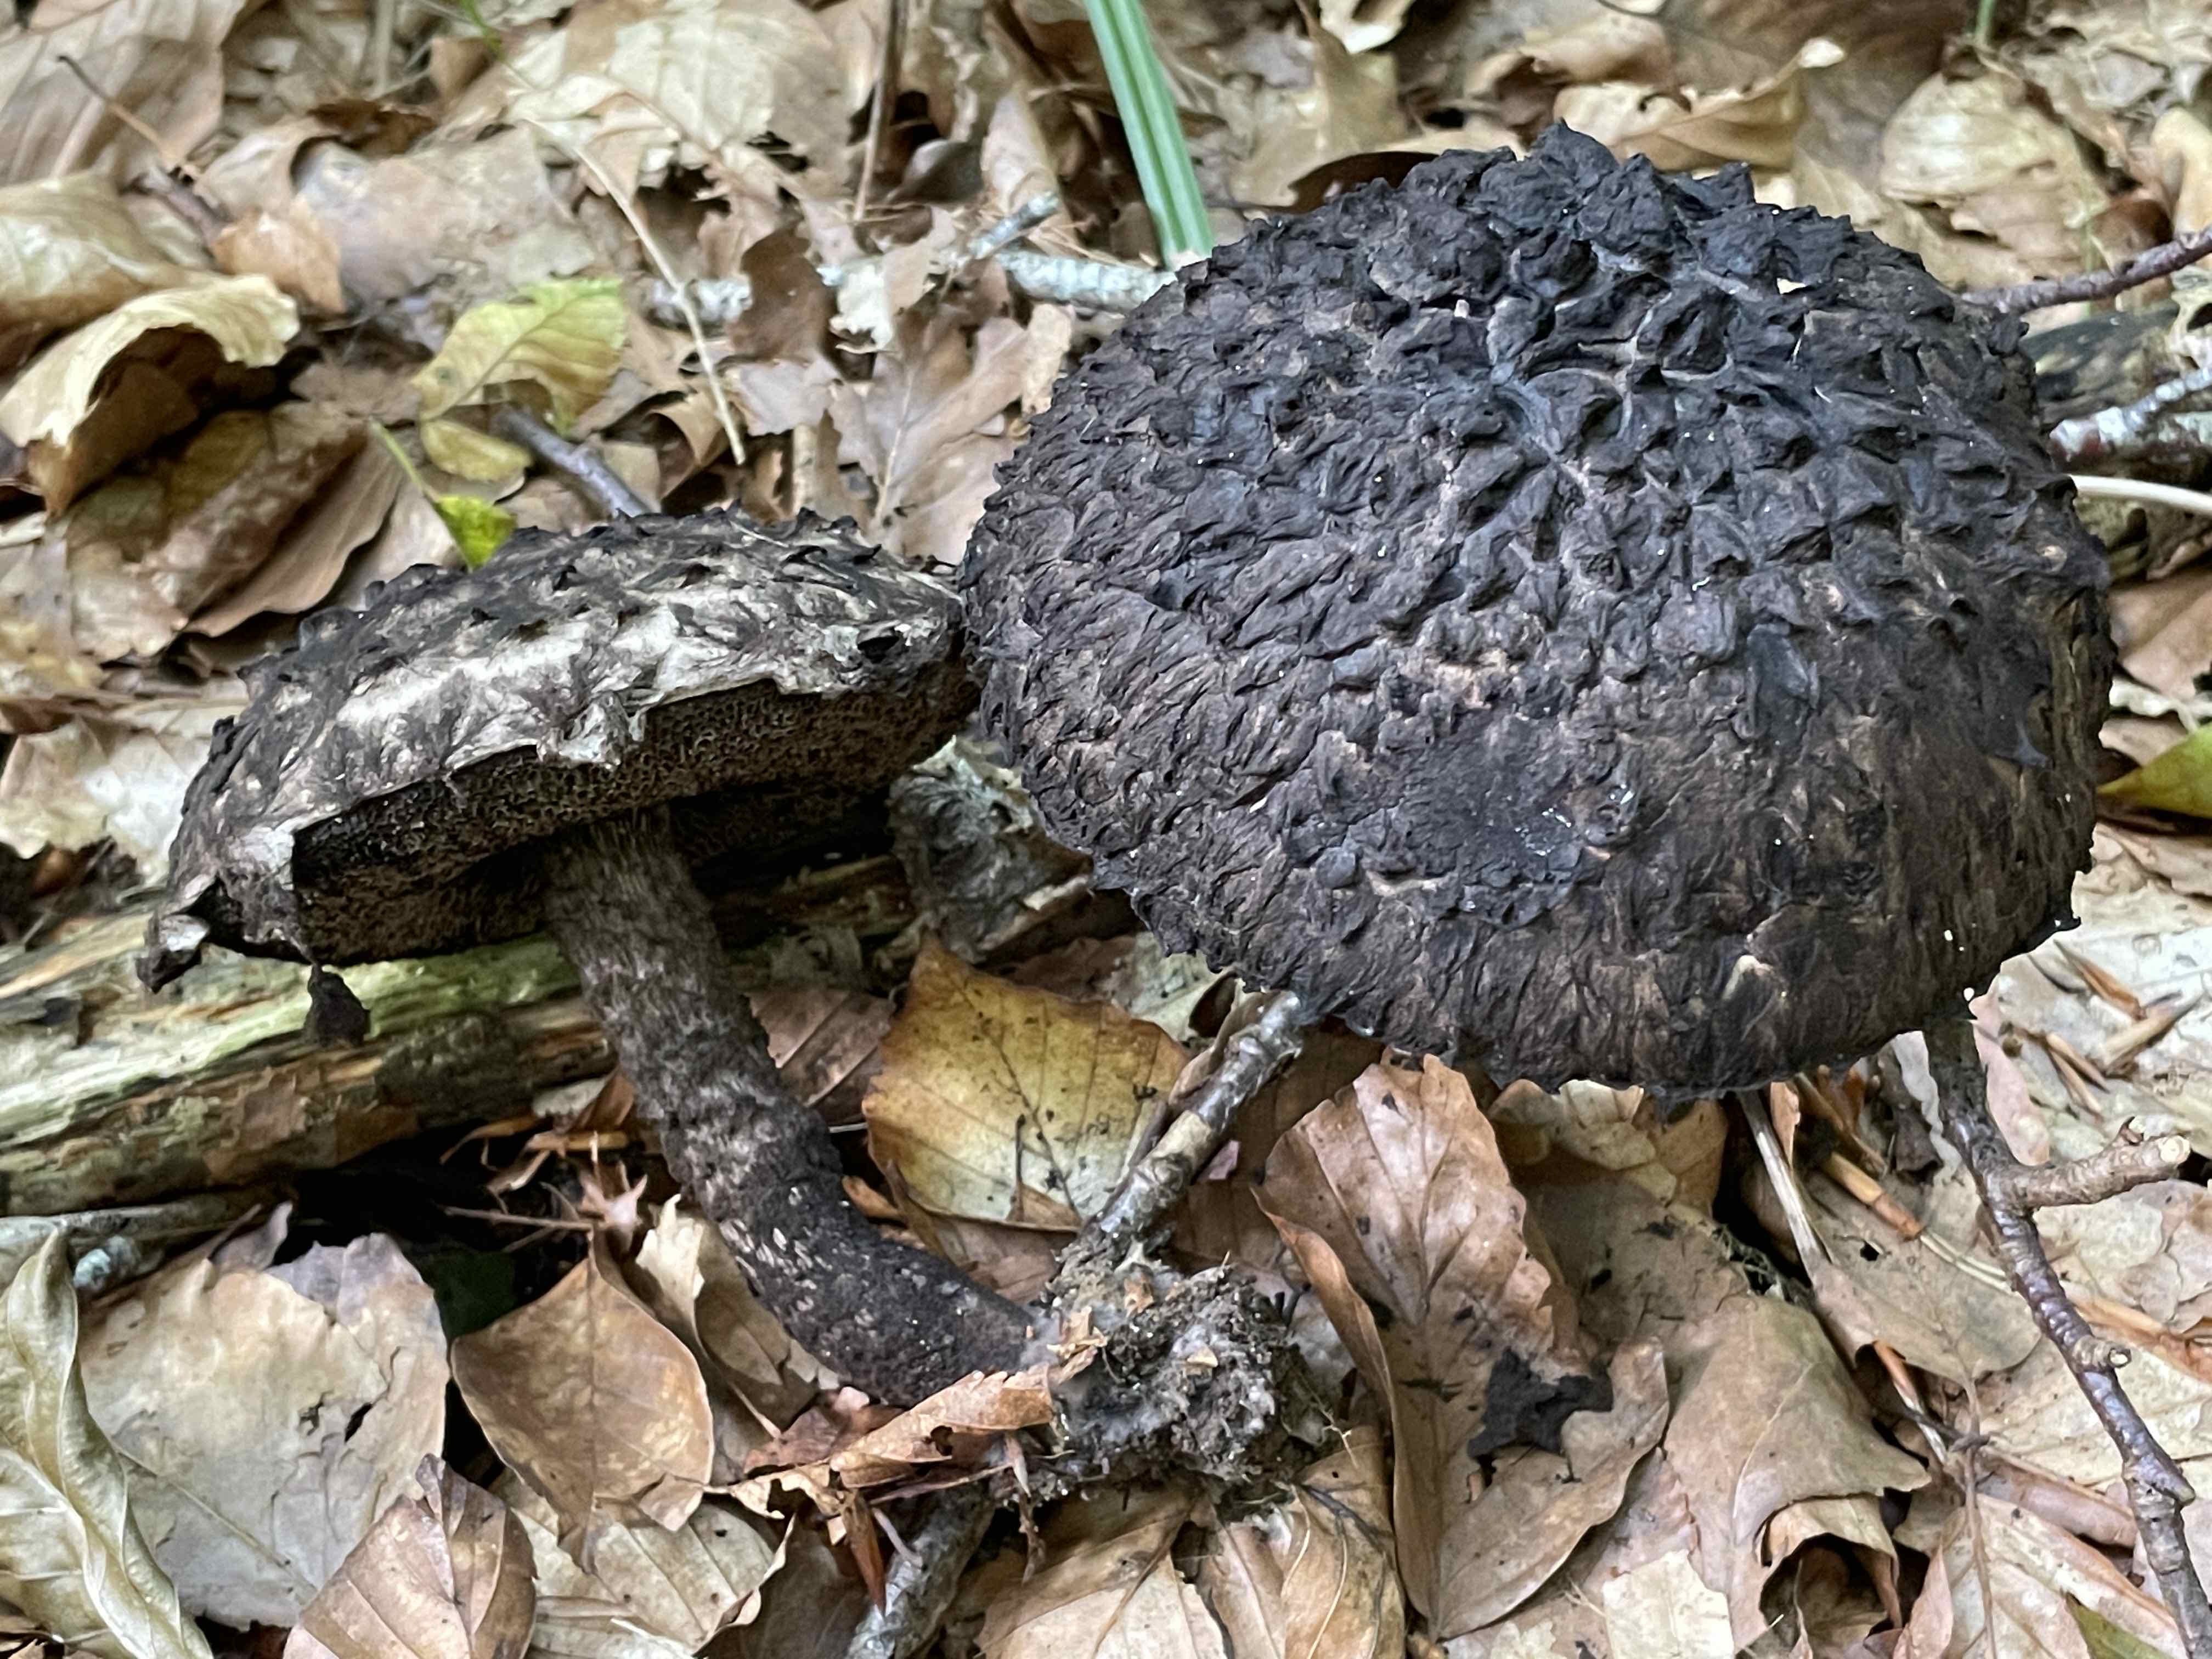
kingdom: Fungi
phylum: Basidiomycota
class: Agaricomycetes
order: Boletales
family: Boletaceae
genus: Strobilomyces
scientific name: Strobilomyces strobilaceus
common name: koglerørhat
